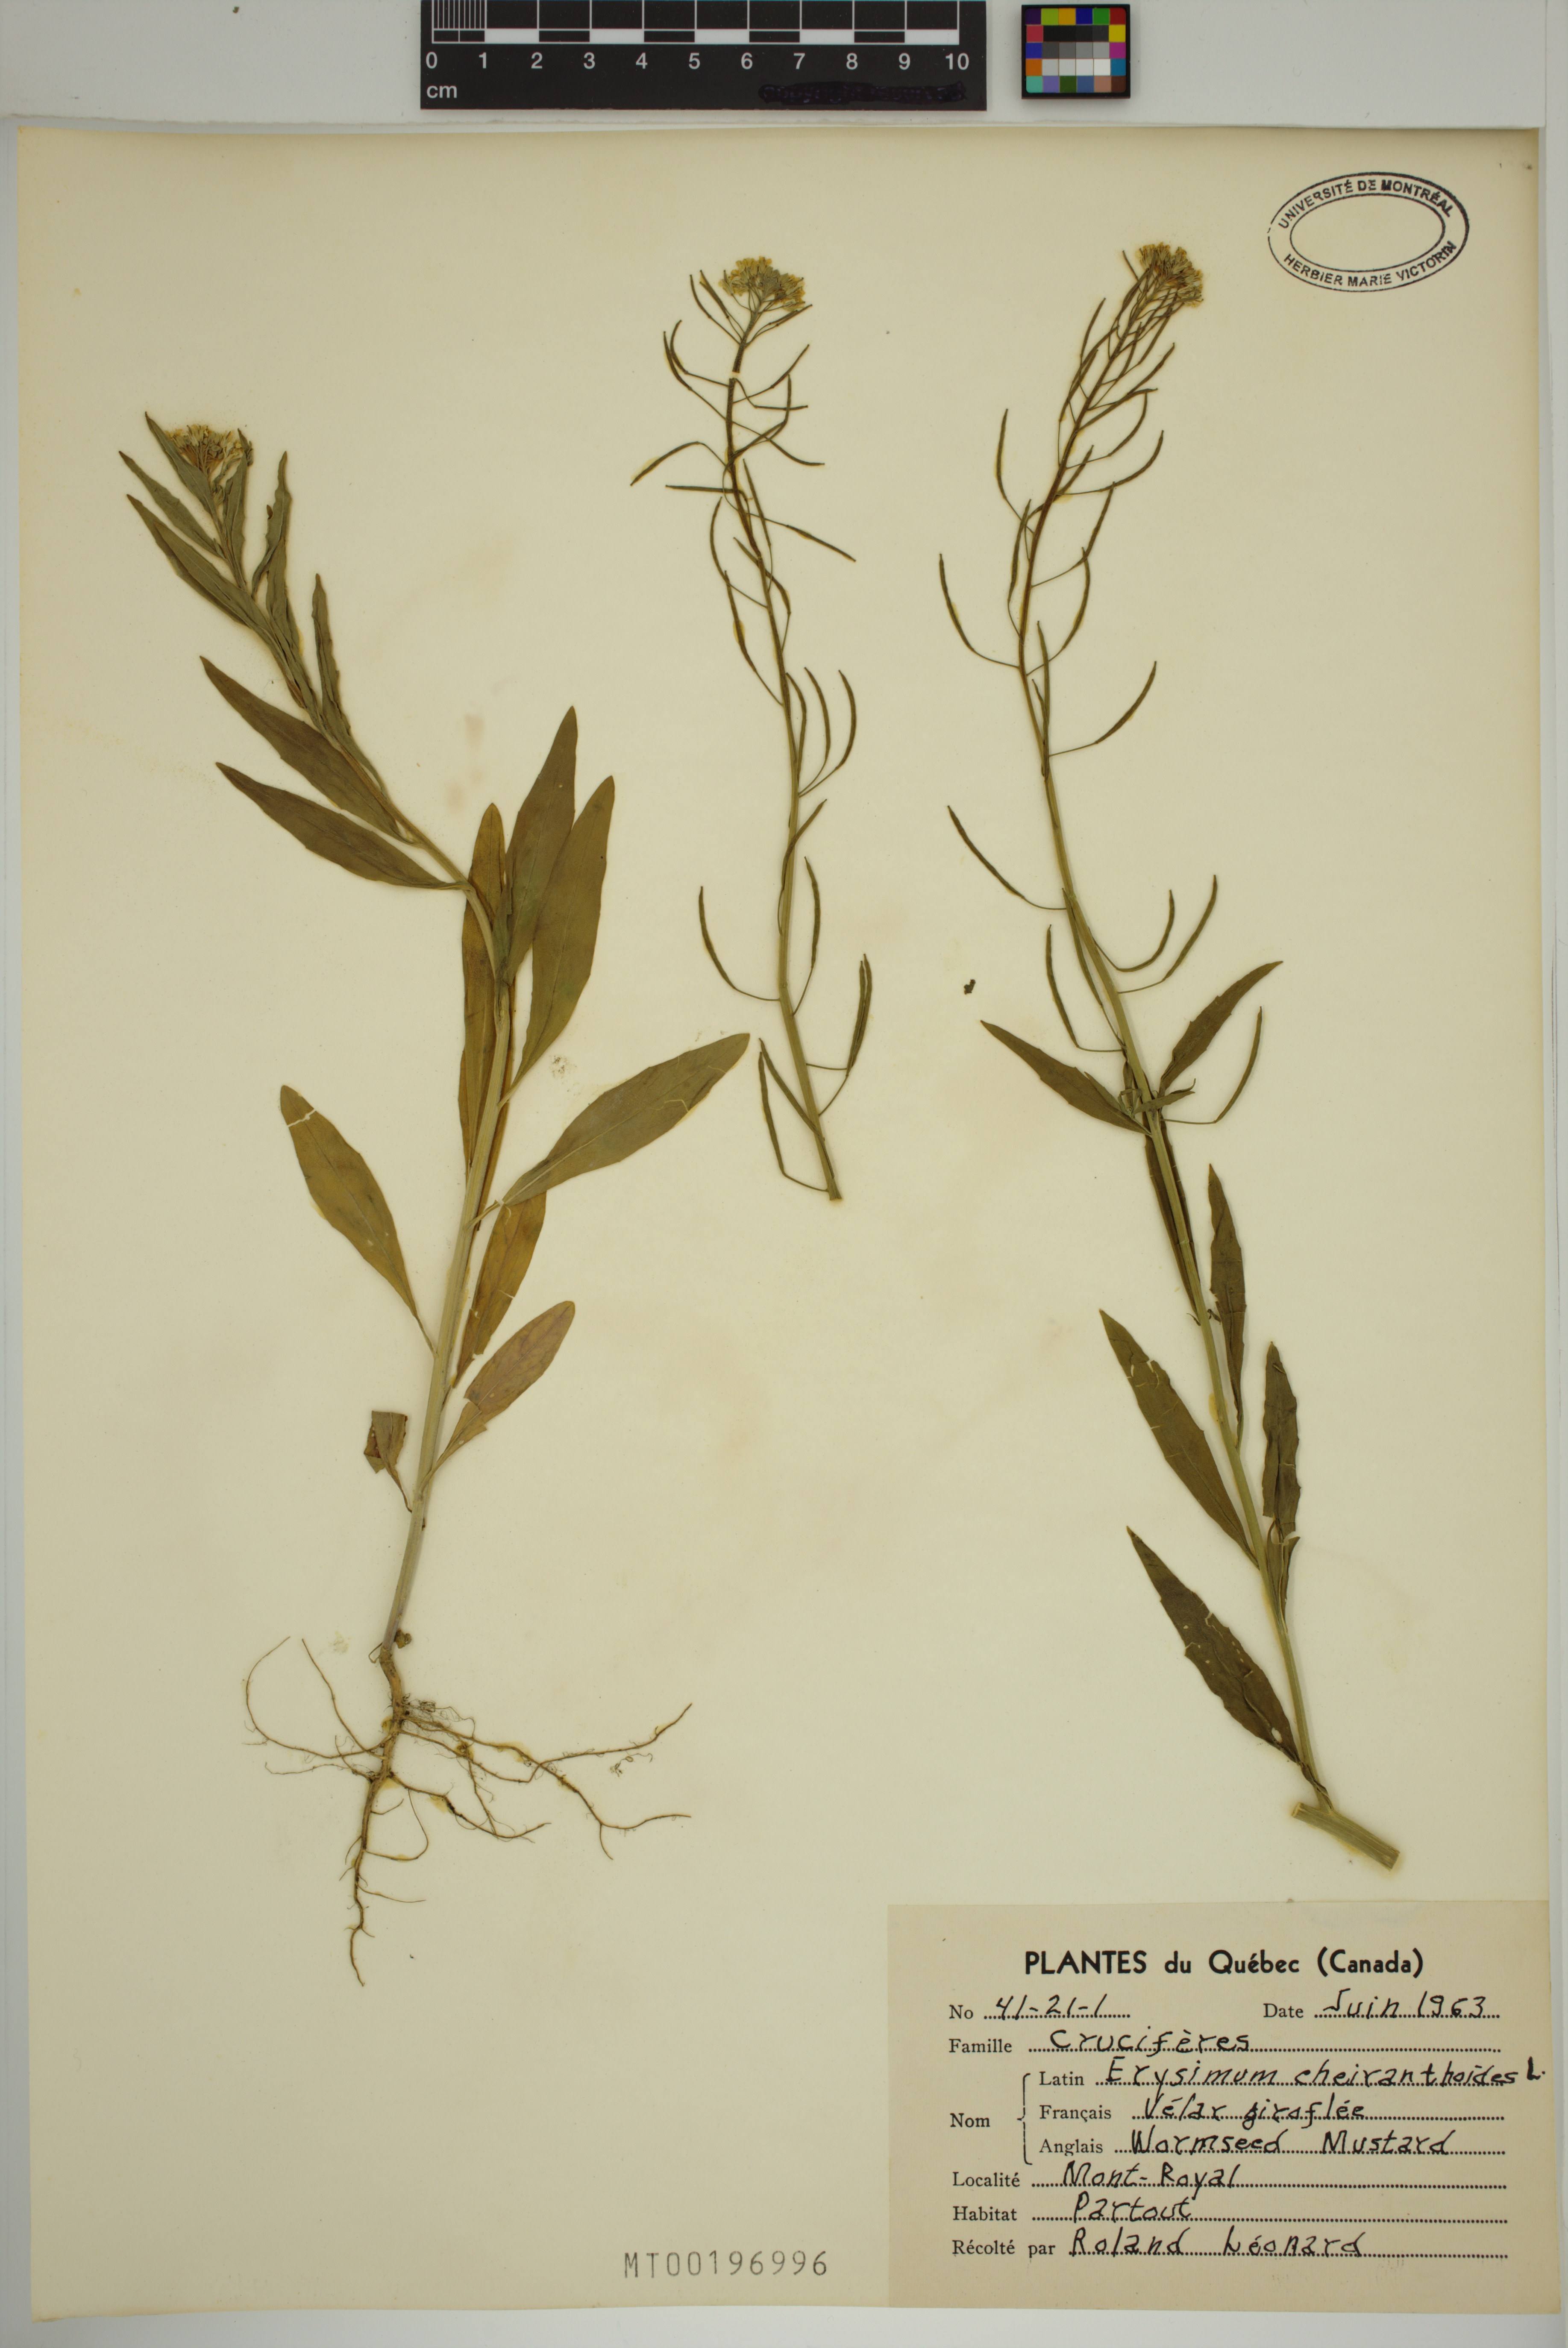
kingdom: Plantae
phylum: Tracheophyta
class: Magnoliopsida
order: Brassicales
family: Brassicaceae
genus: Erysimum
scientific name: Erysimum cheiranthoides
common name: Treacle mustard
